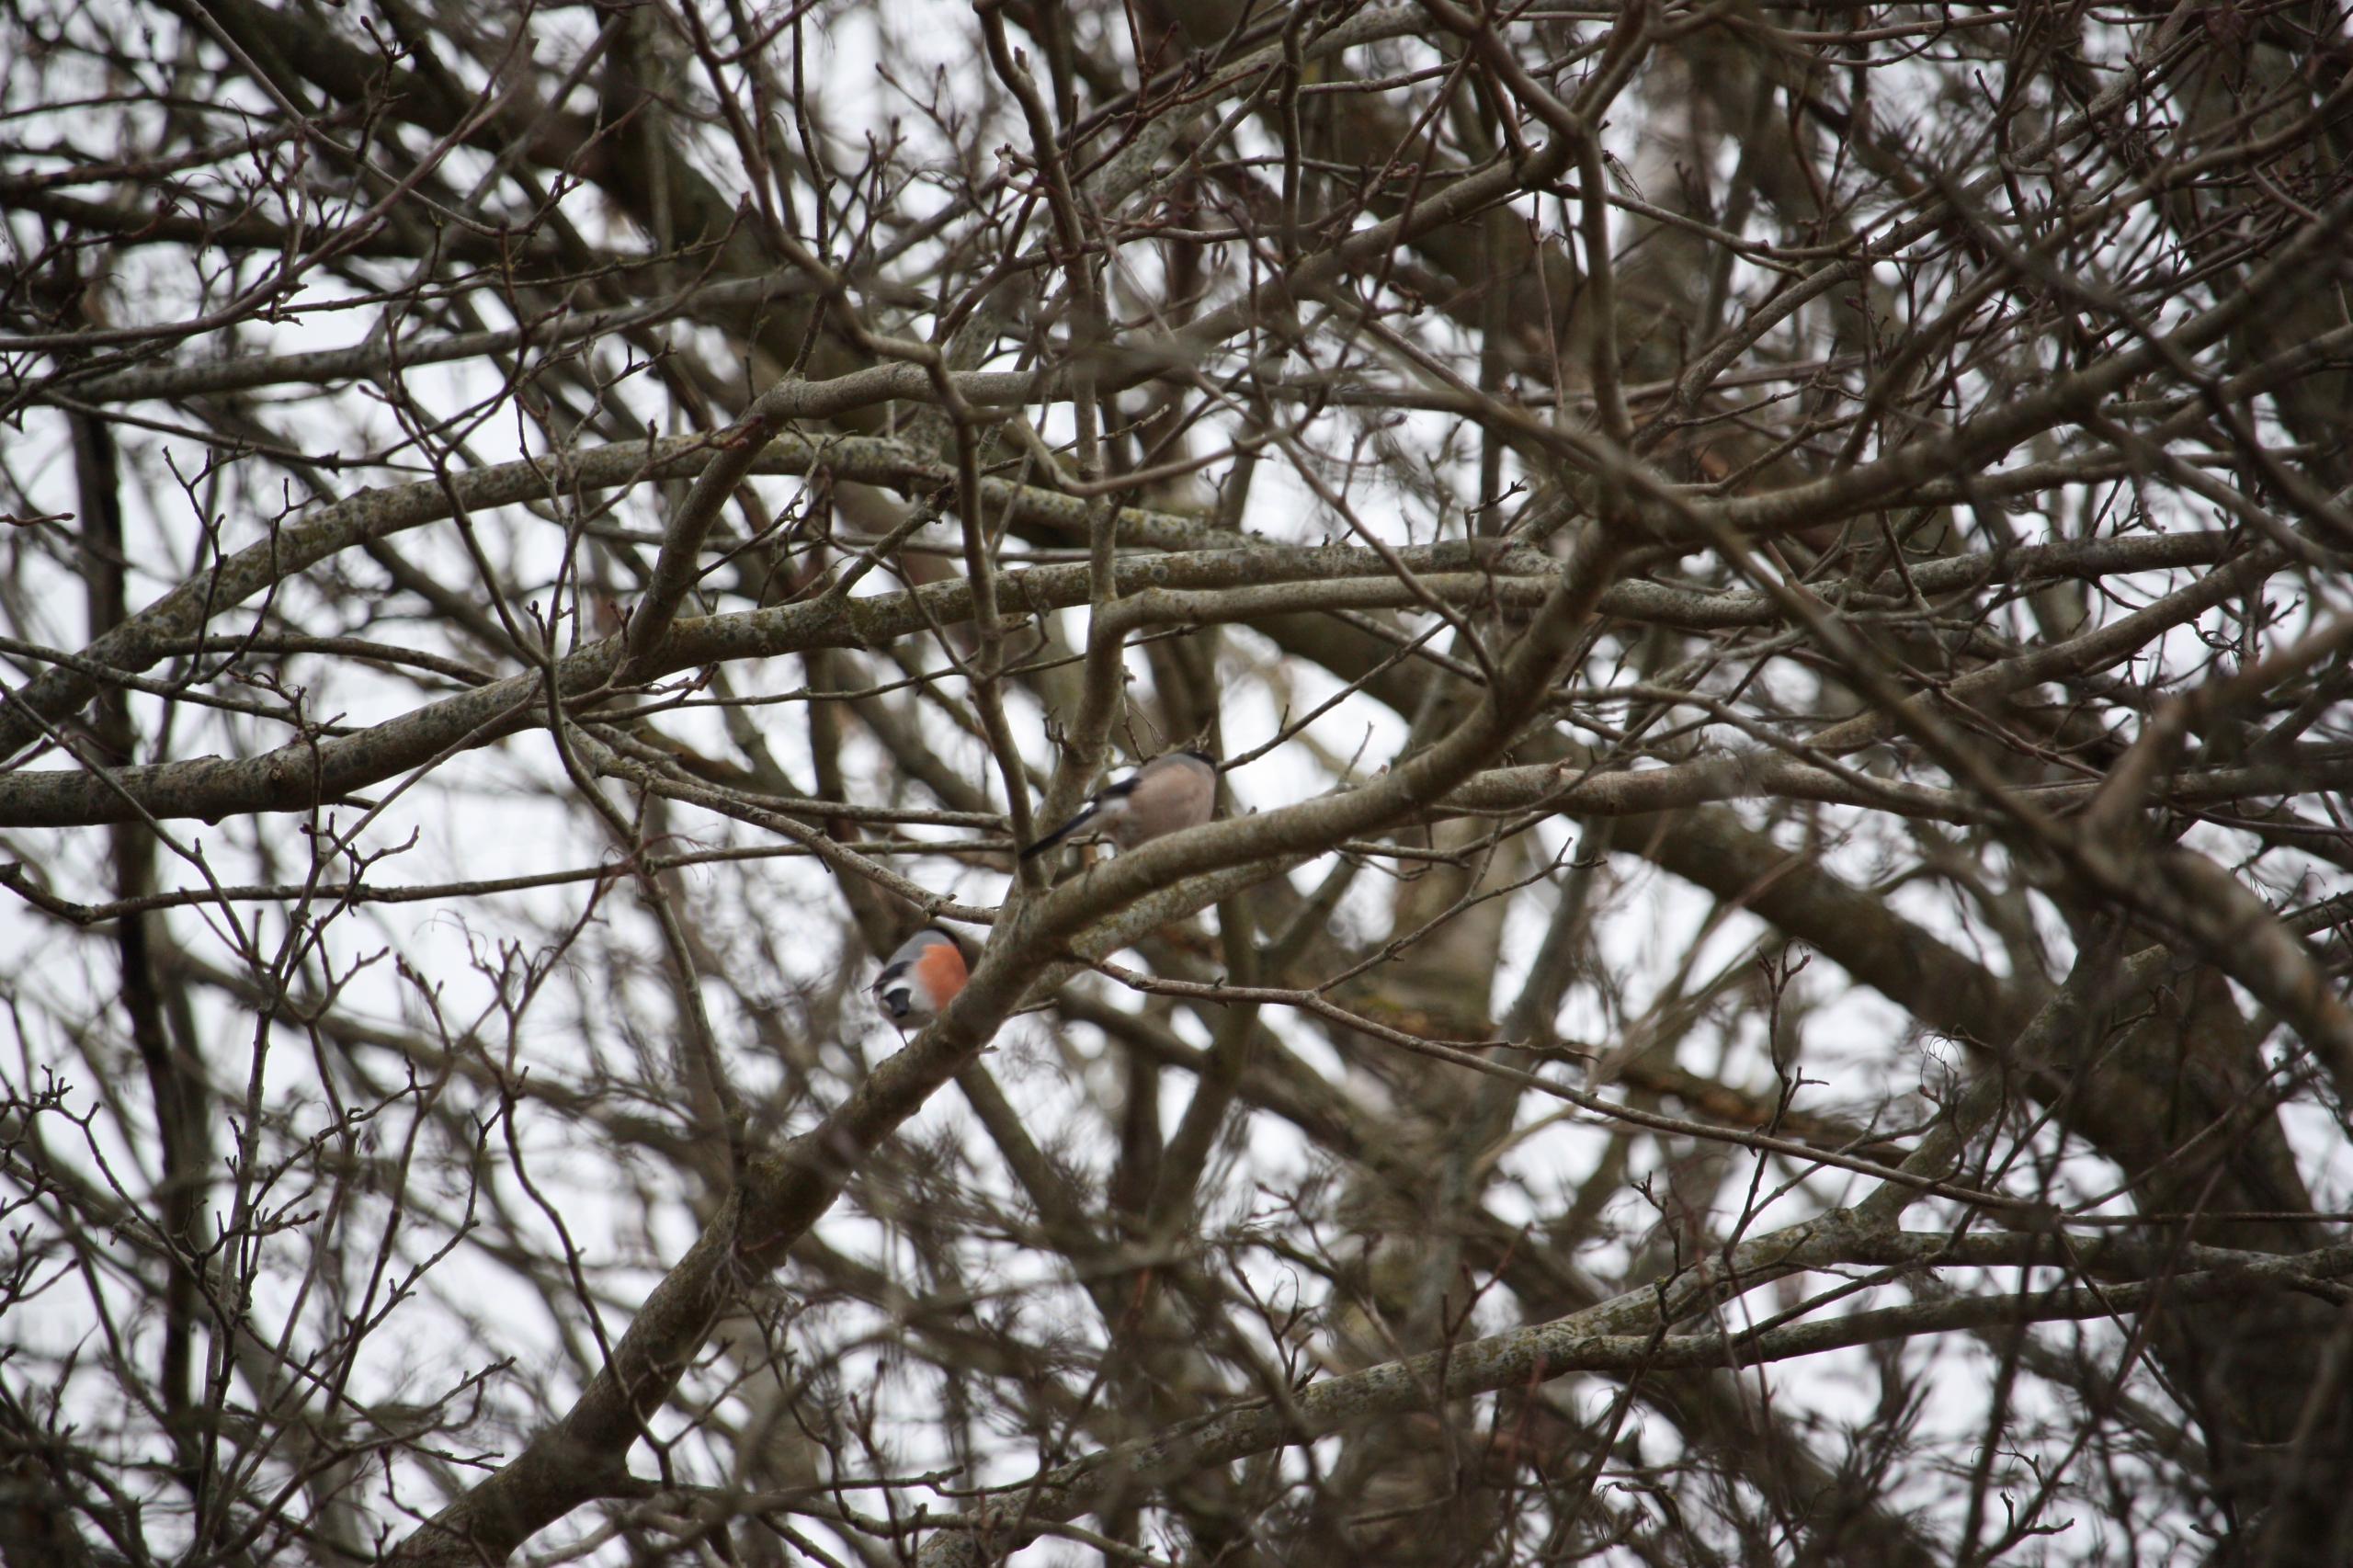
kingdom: Animalia
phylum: Chordata
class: Aves
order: Passeriformes
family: Fringillidae
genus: Pyrrhula
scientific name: Pyrrhula pyrrhula
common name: Dompap
